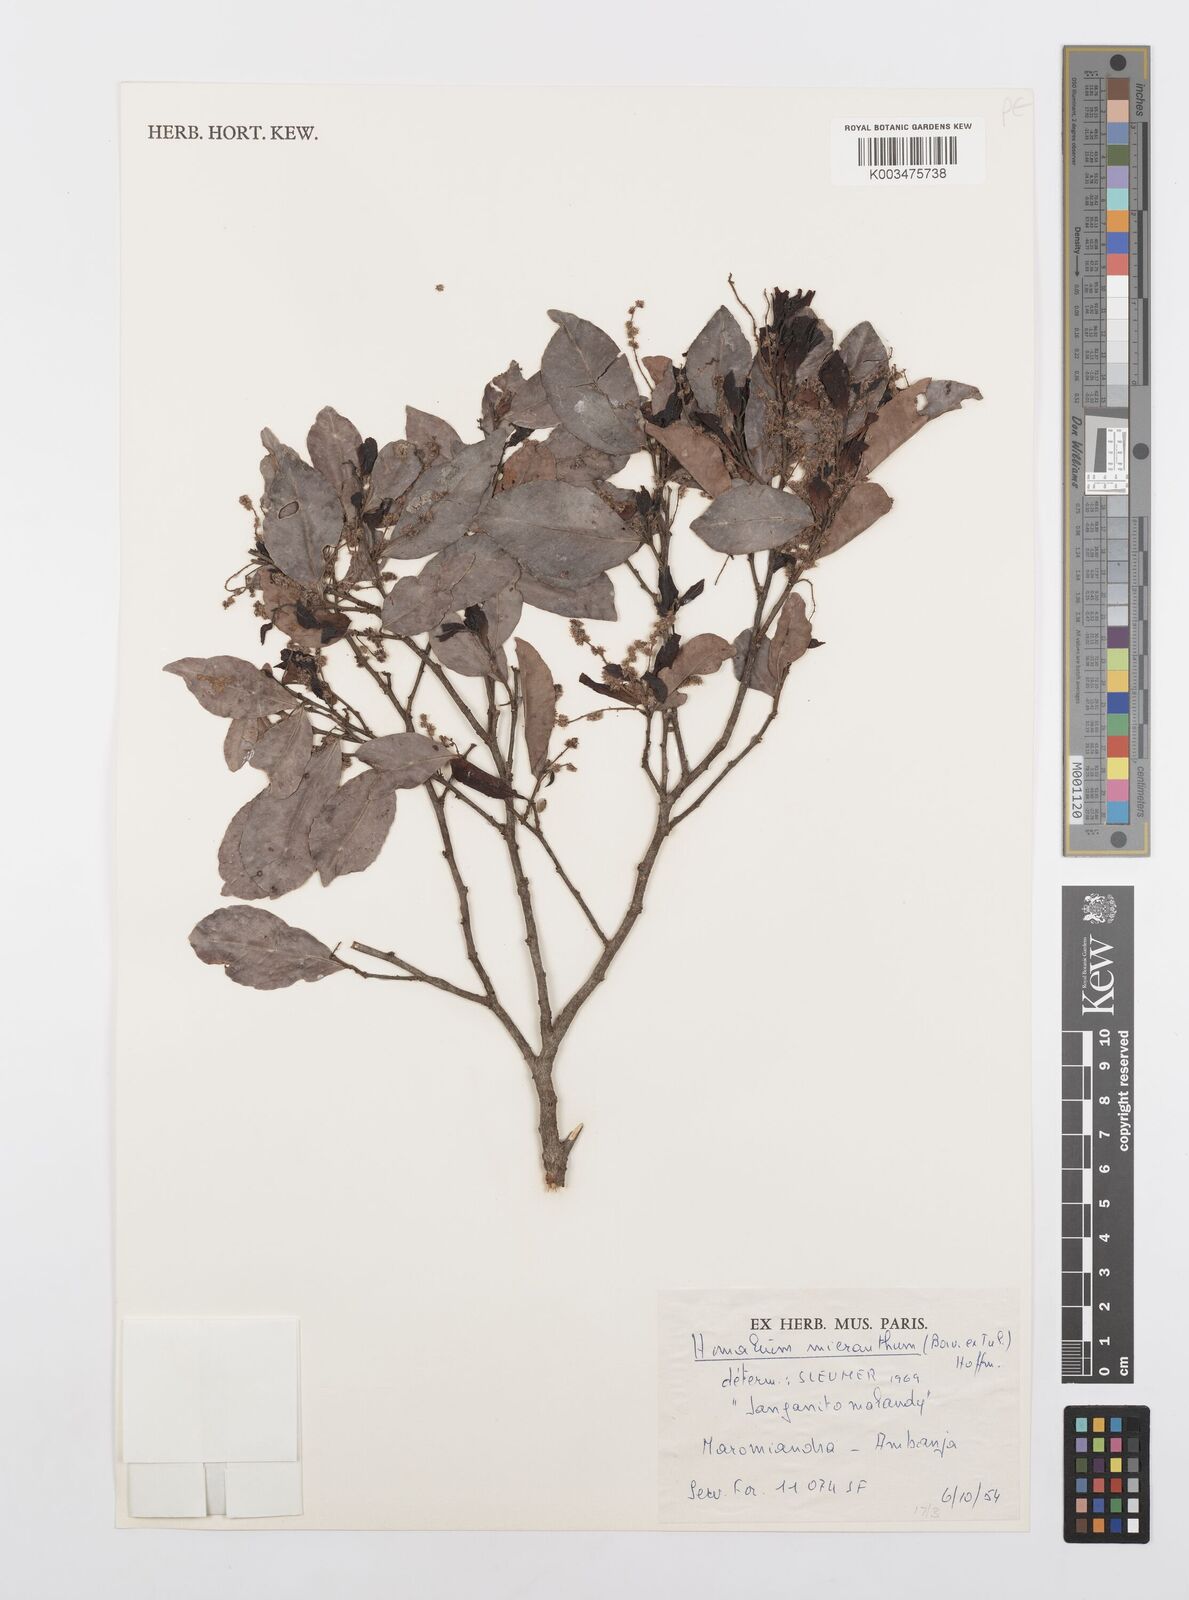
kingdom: Plantae
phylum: Tracheophyta
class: Magnoliopsida
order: Malpighiales
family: Salicaceae
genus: Homalium
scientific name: Homalium micranthum
